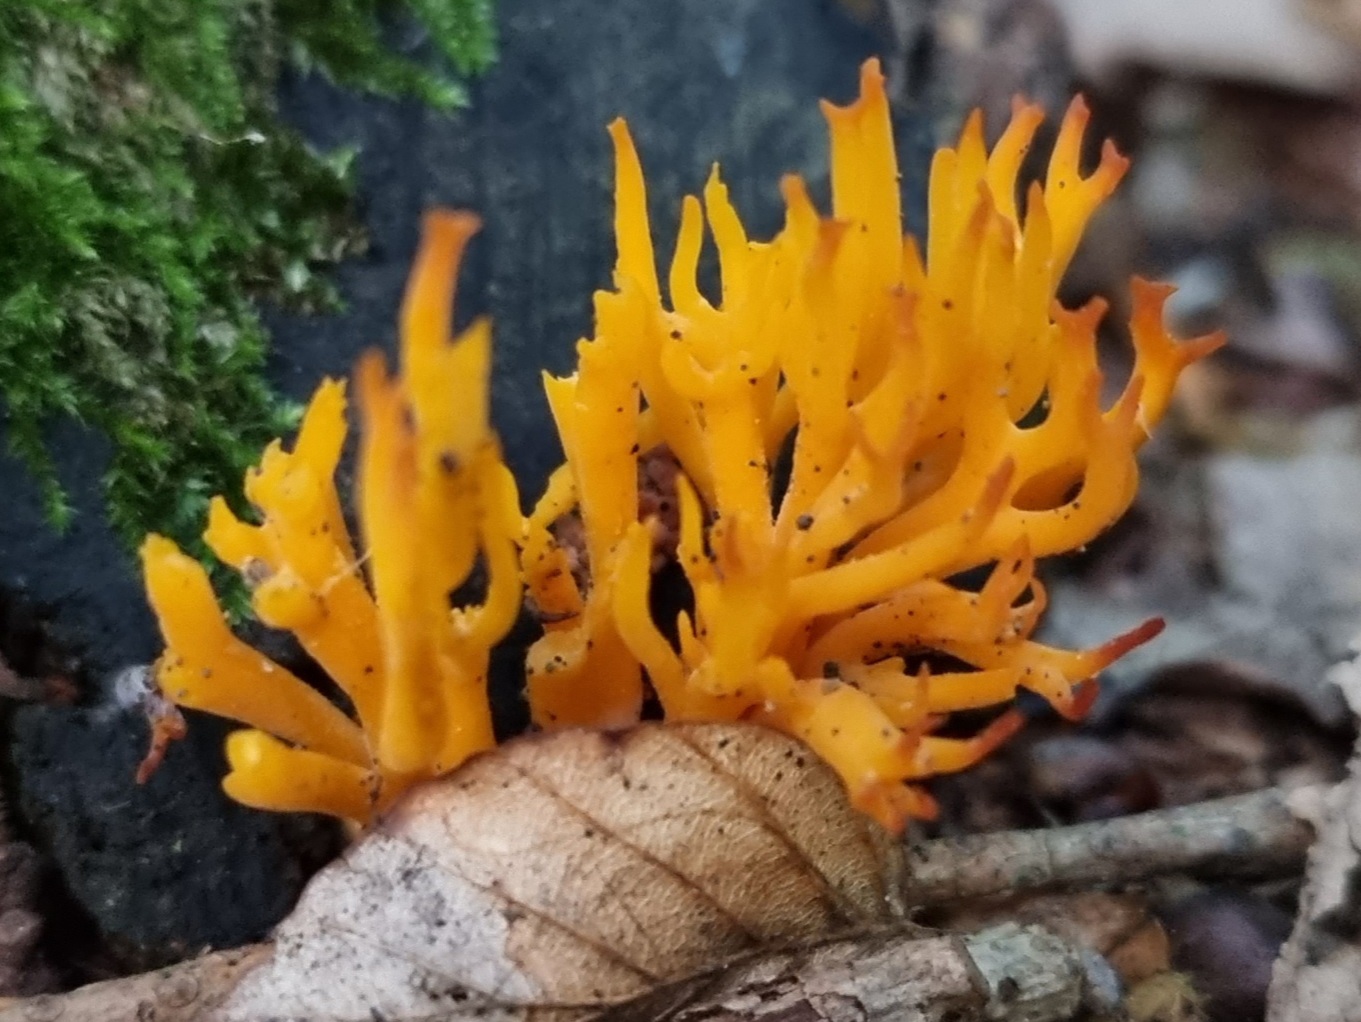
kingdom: Fungi
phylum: Basidiomycota
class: Dacrymycetes
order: Dacrymycetales
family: Dacrymycetaceae
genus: Calocera
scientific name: Calocera viscosa
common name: almindelig guldgaffel
